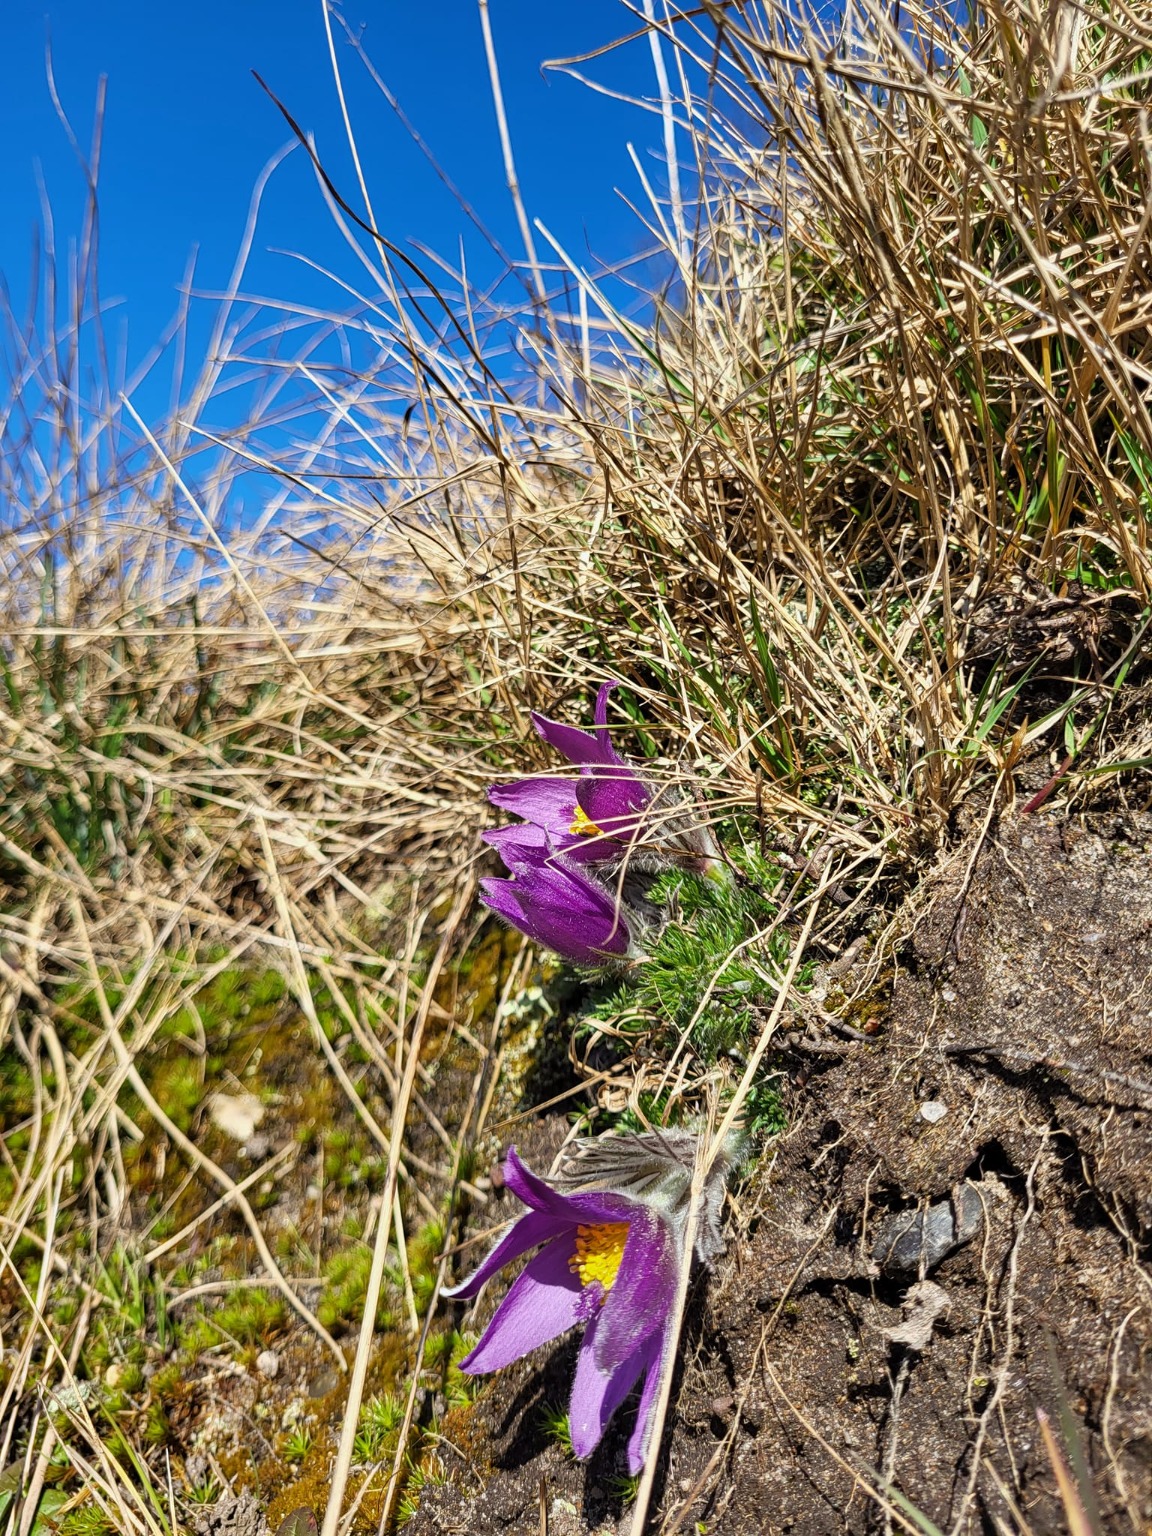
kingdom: Plantae
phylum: Tracheophyta
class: Magnoliopsida
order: Ranunculales
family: Ranunculaceae
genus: Pulsatilla
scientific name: Pulsatilla vulgaris
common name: Opret kobjælde
